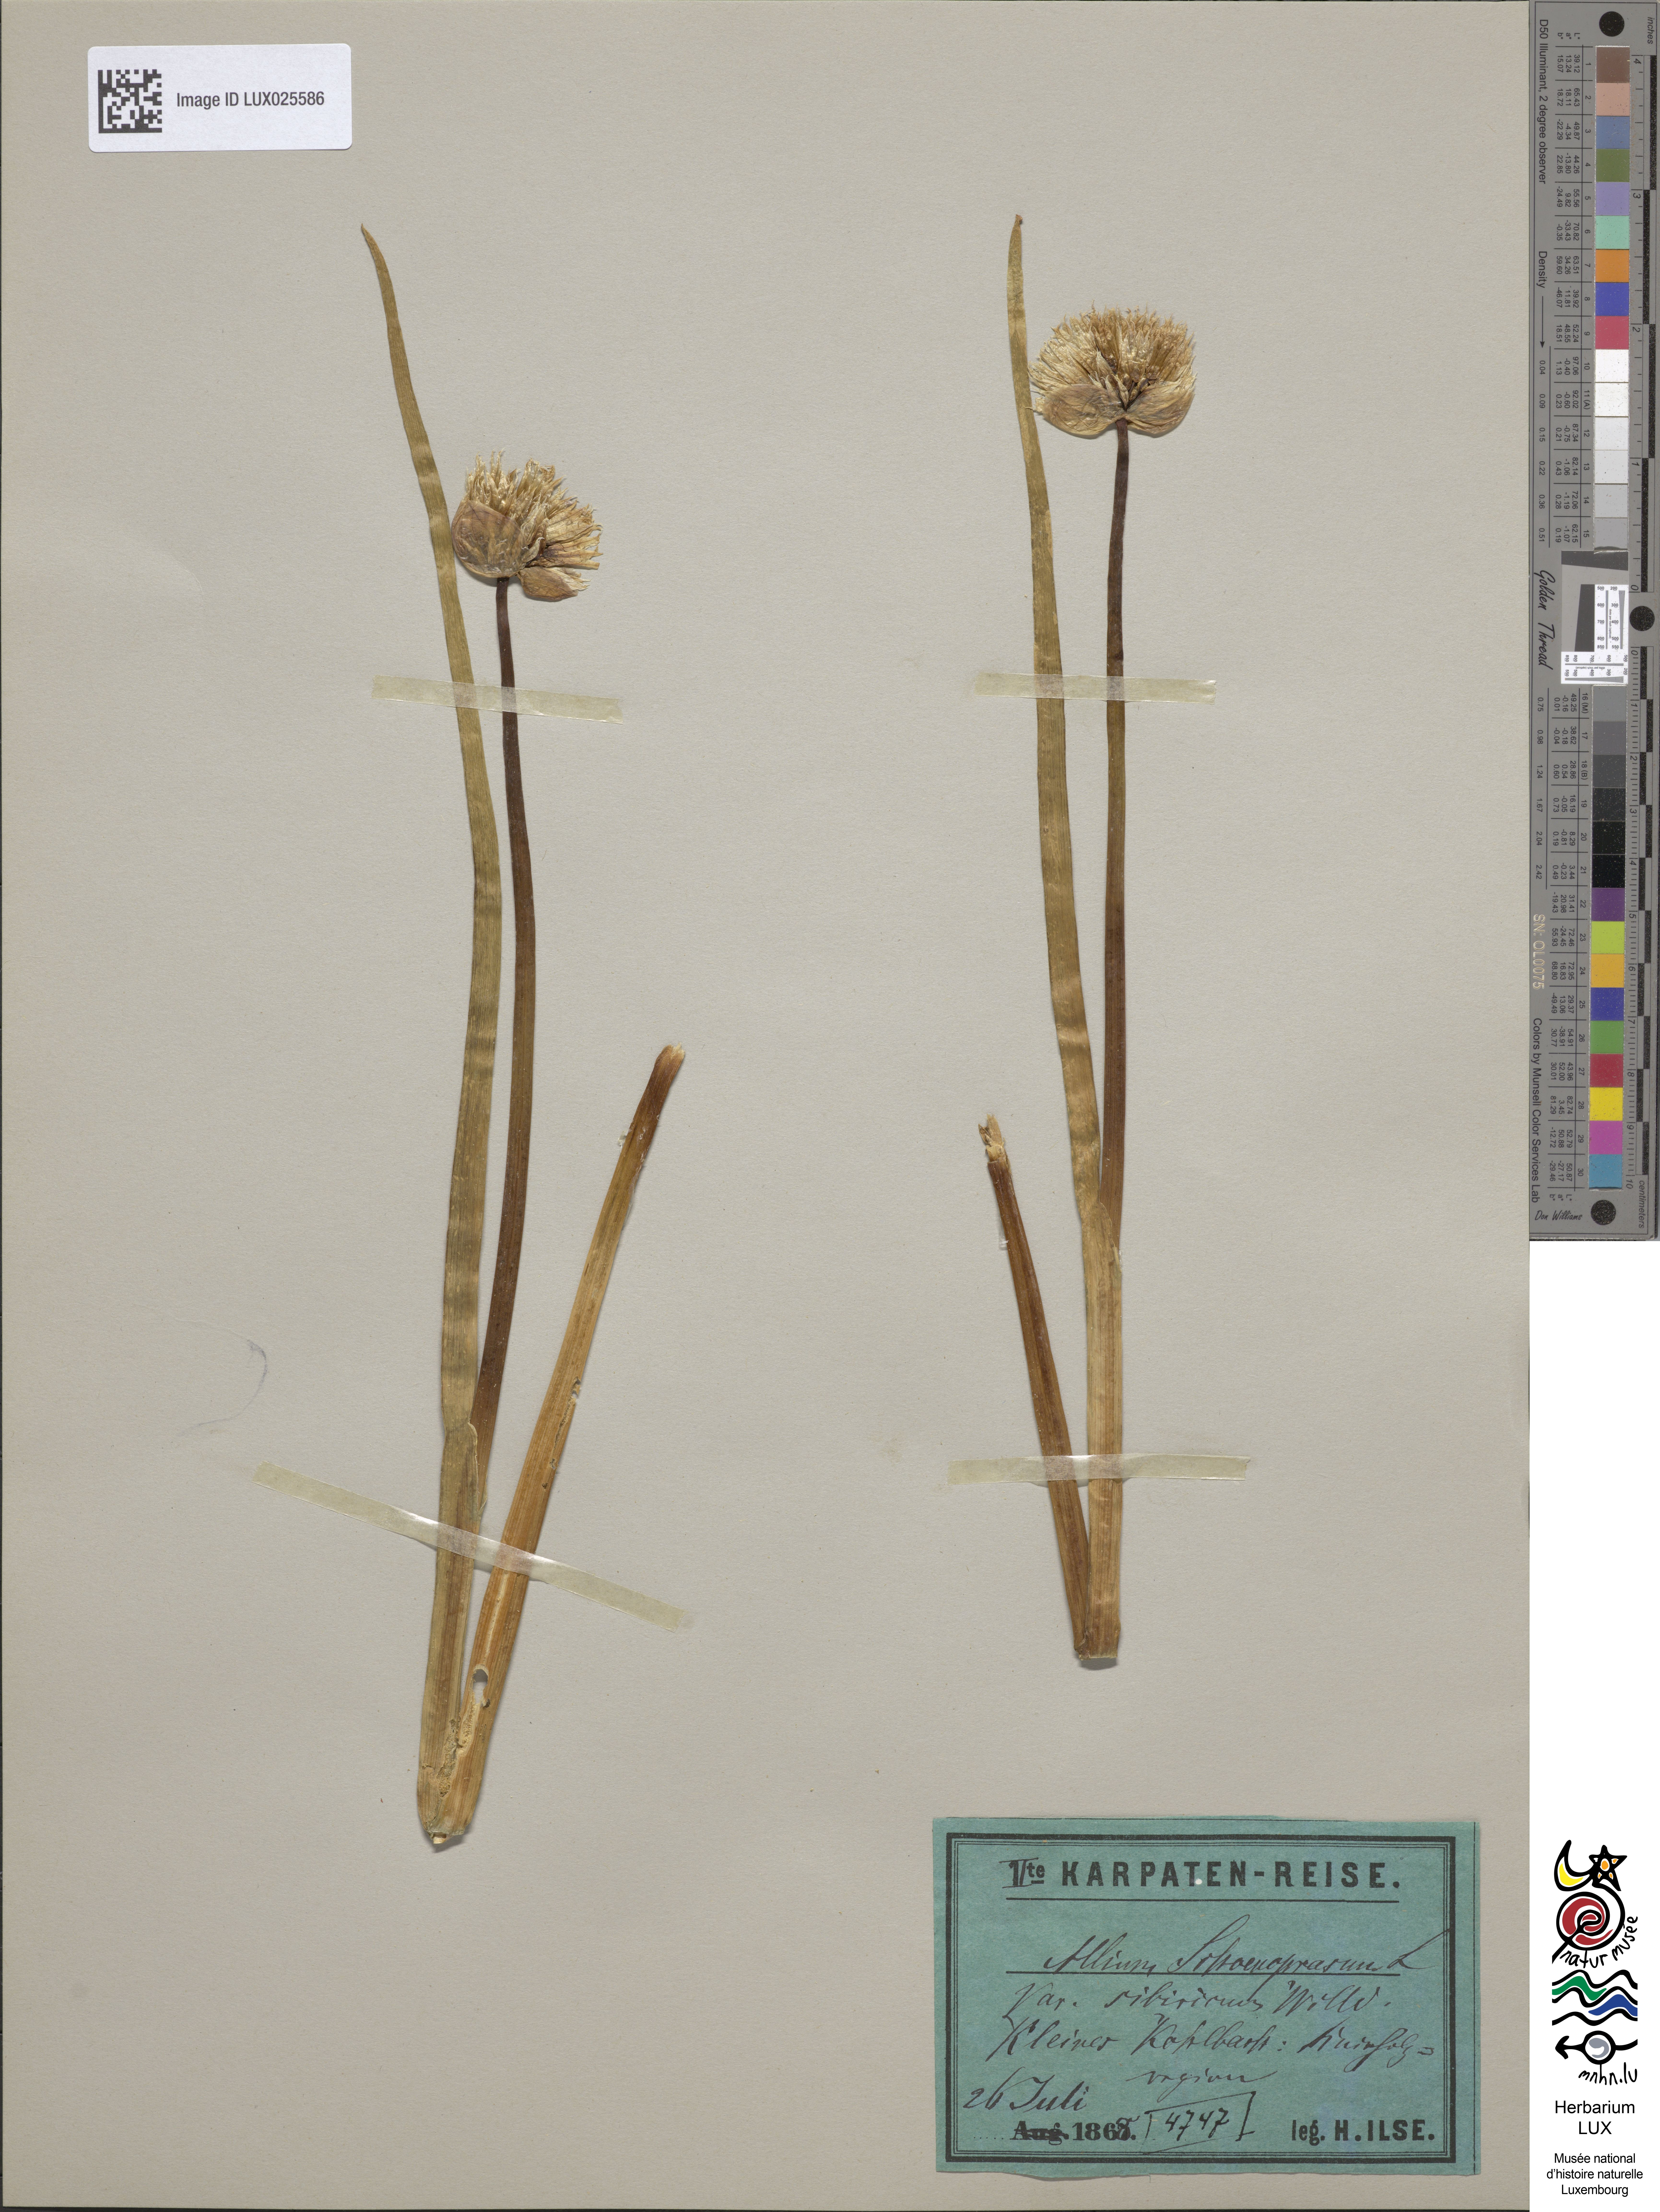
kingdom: Plantae
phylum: Tracheophyta
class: Liliopsida
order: Asparagales
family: Amaryllidaceae
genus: Allium
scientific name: Allium schoenoprasum
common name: Chives
